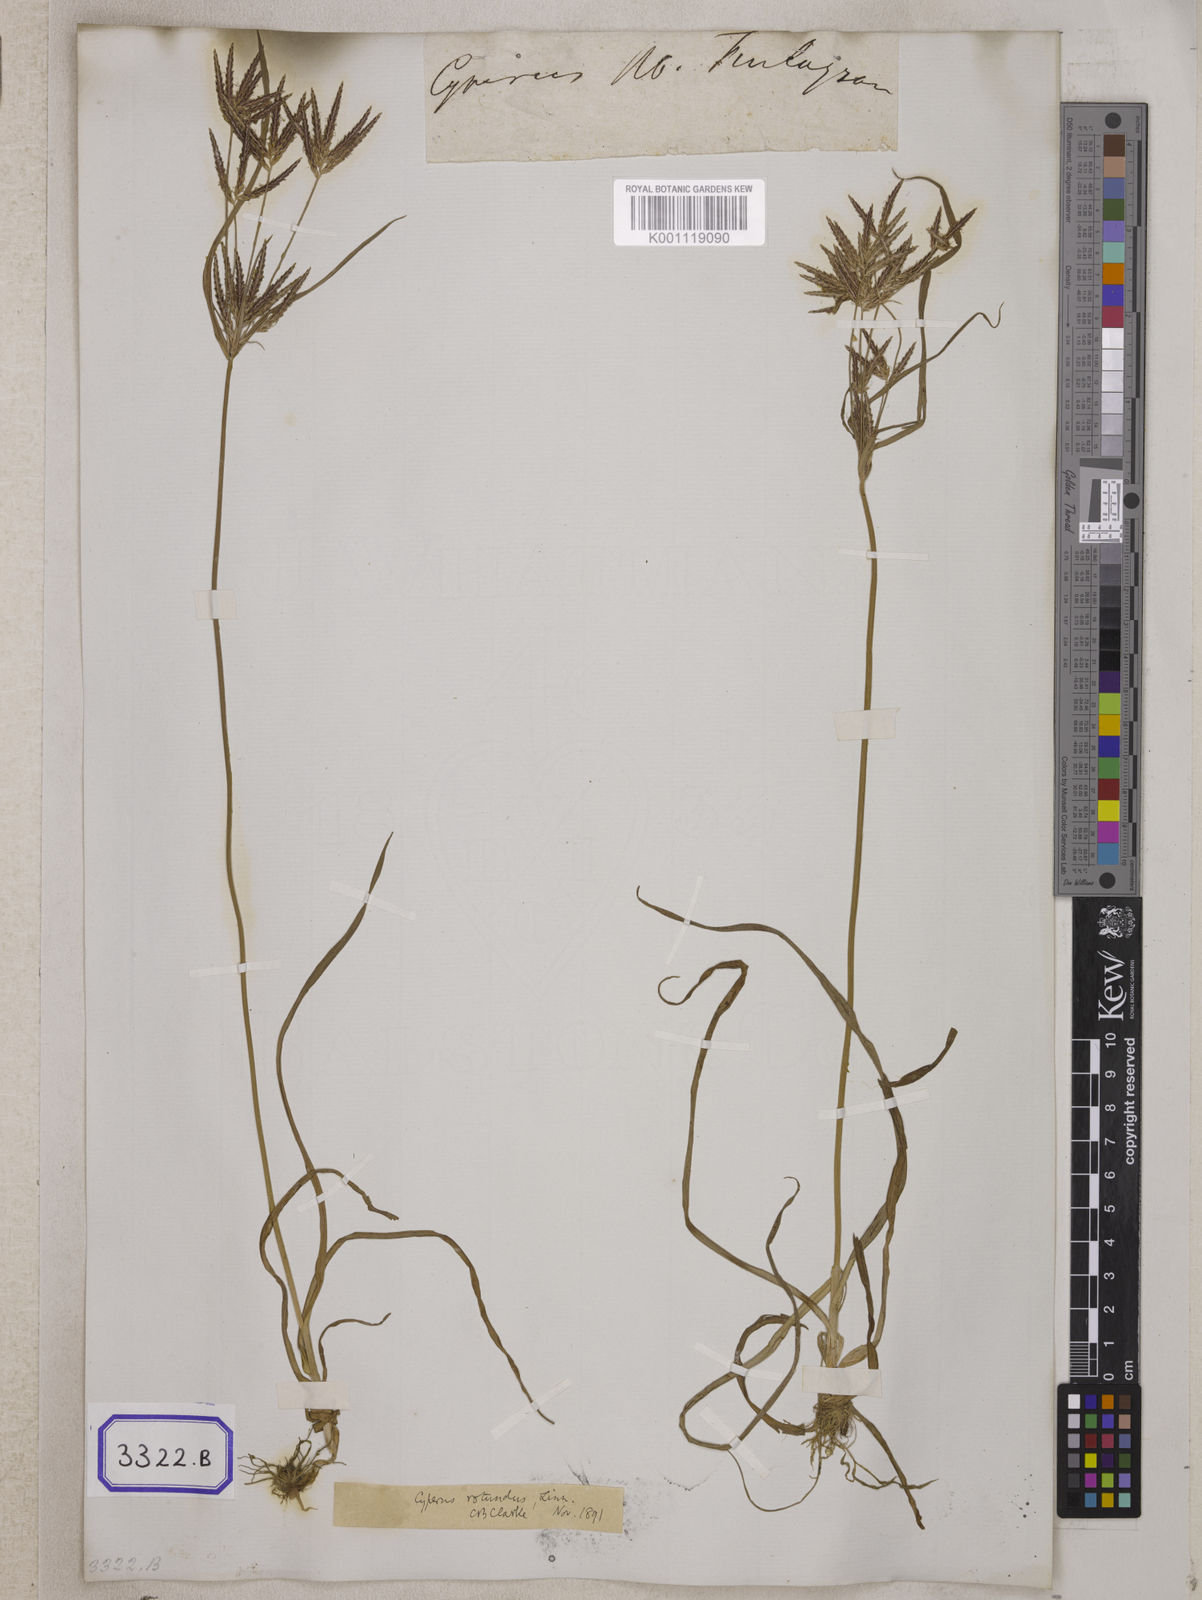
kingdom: Plantae
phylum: Tracheophyta
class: Liliopsida
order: Poales
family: Cyperaceae
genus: Cyperus
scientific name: Cyperus
